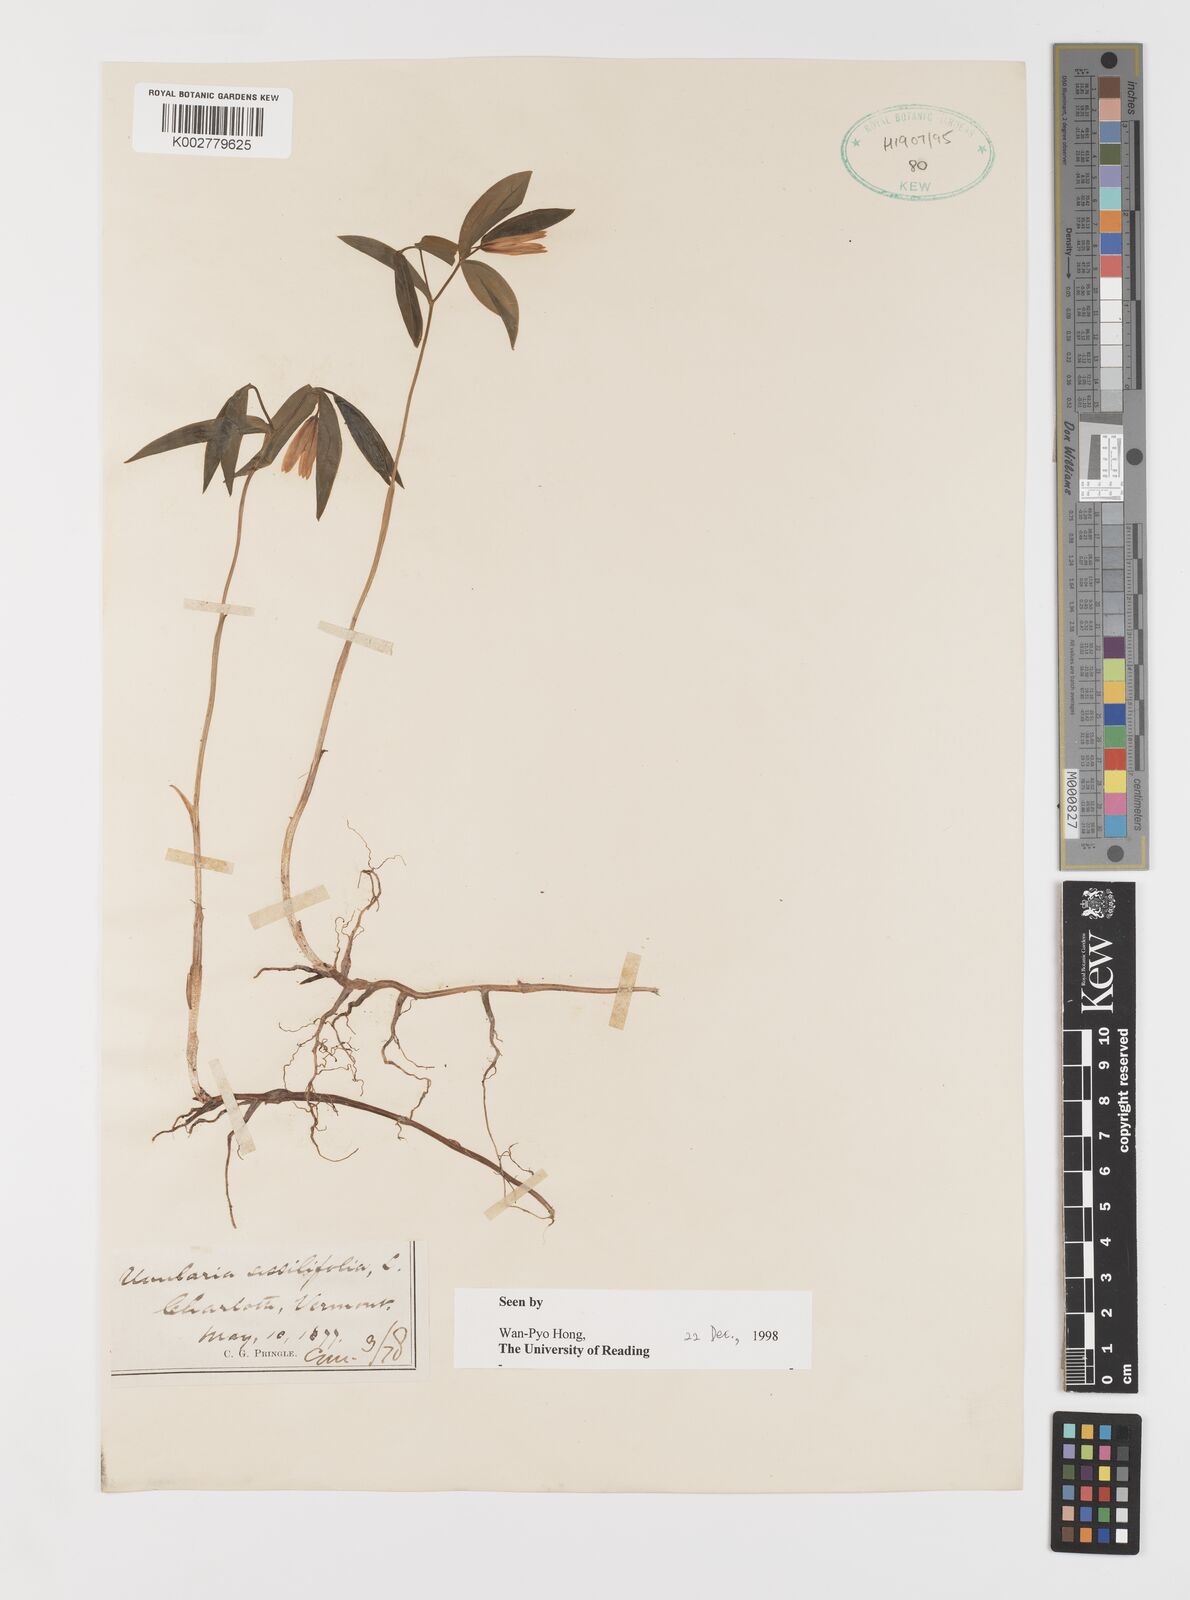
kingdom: Plantae
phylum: Tracheophyta
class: Liliopsida
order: Liliales
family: Colchicaceae
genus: Uvularia
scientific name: Uvularia sessilifolia
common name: Straw-lily
